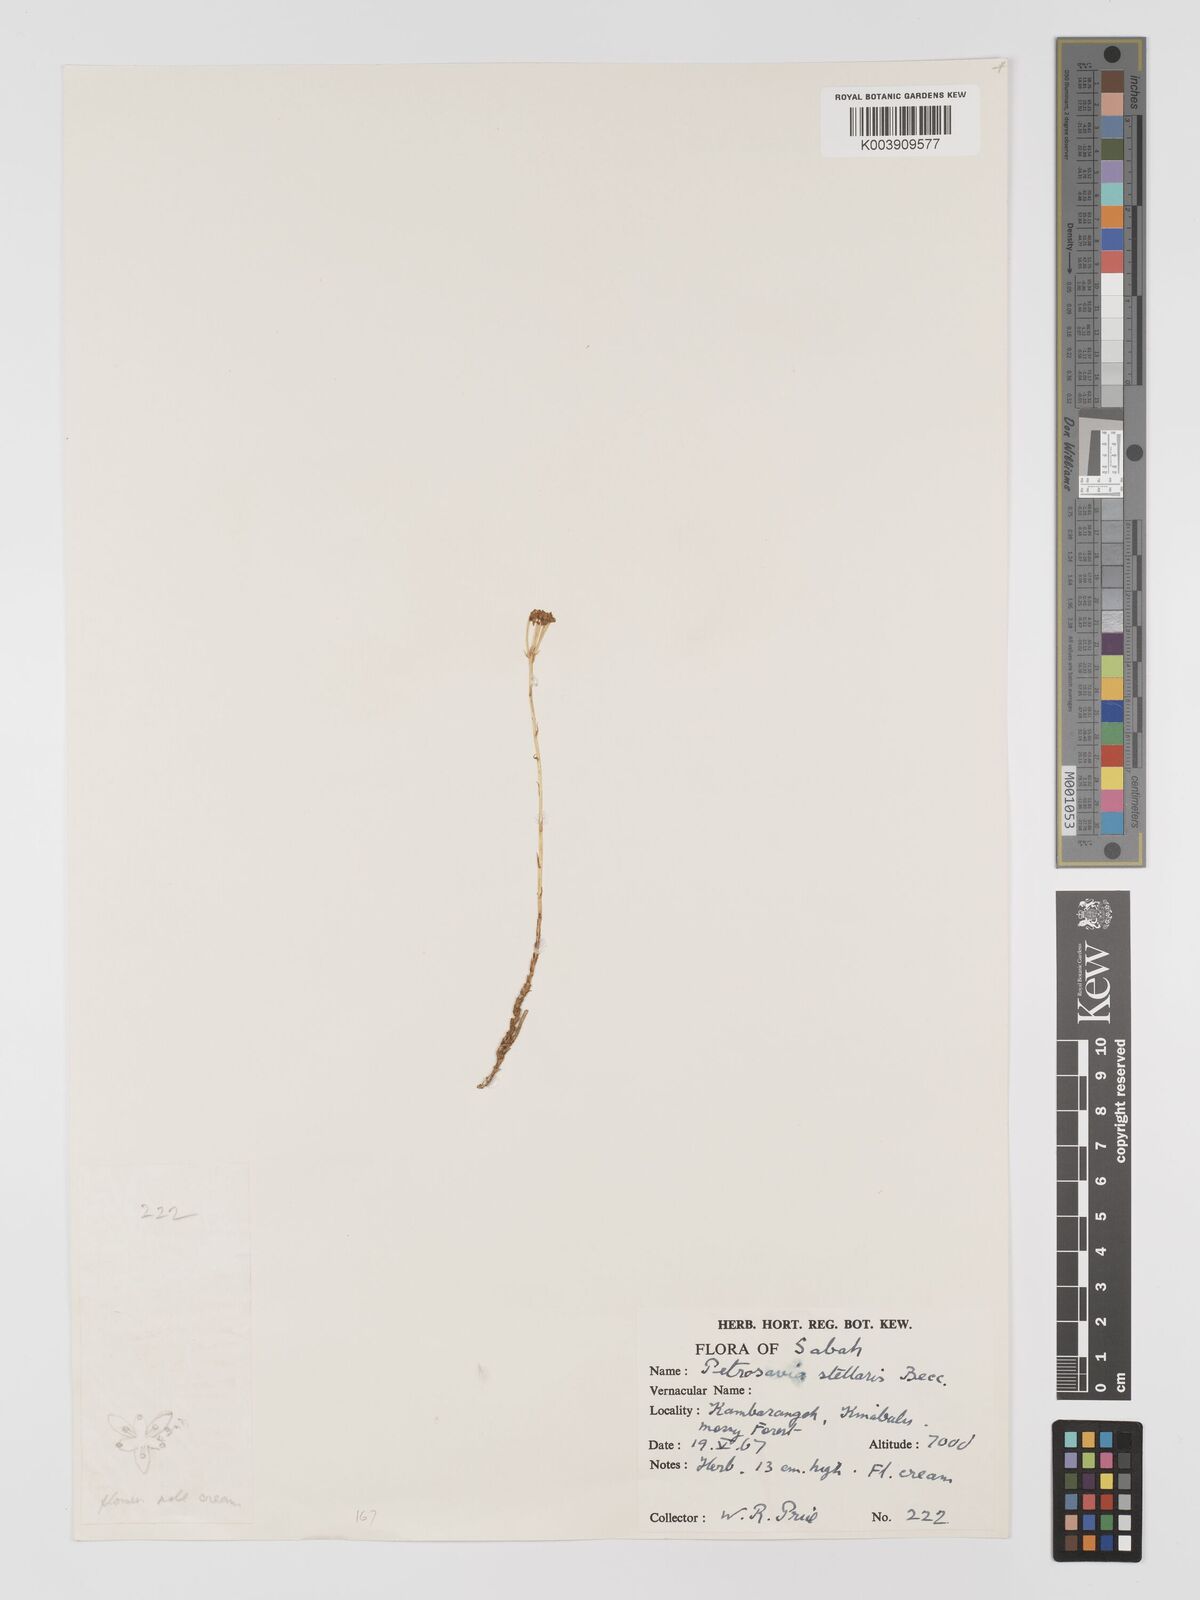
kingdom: Plantae
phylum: Tracheophyta
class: Liliopsida
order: Petrosaviales
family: Petrosaviaceae
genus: Petrosavia
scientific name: Petrosavia stellaris
